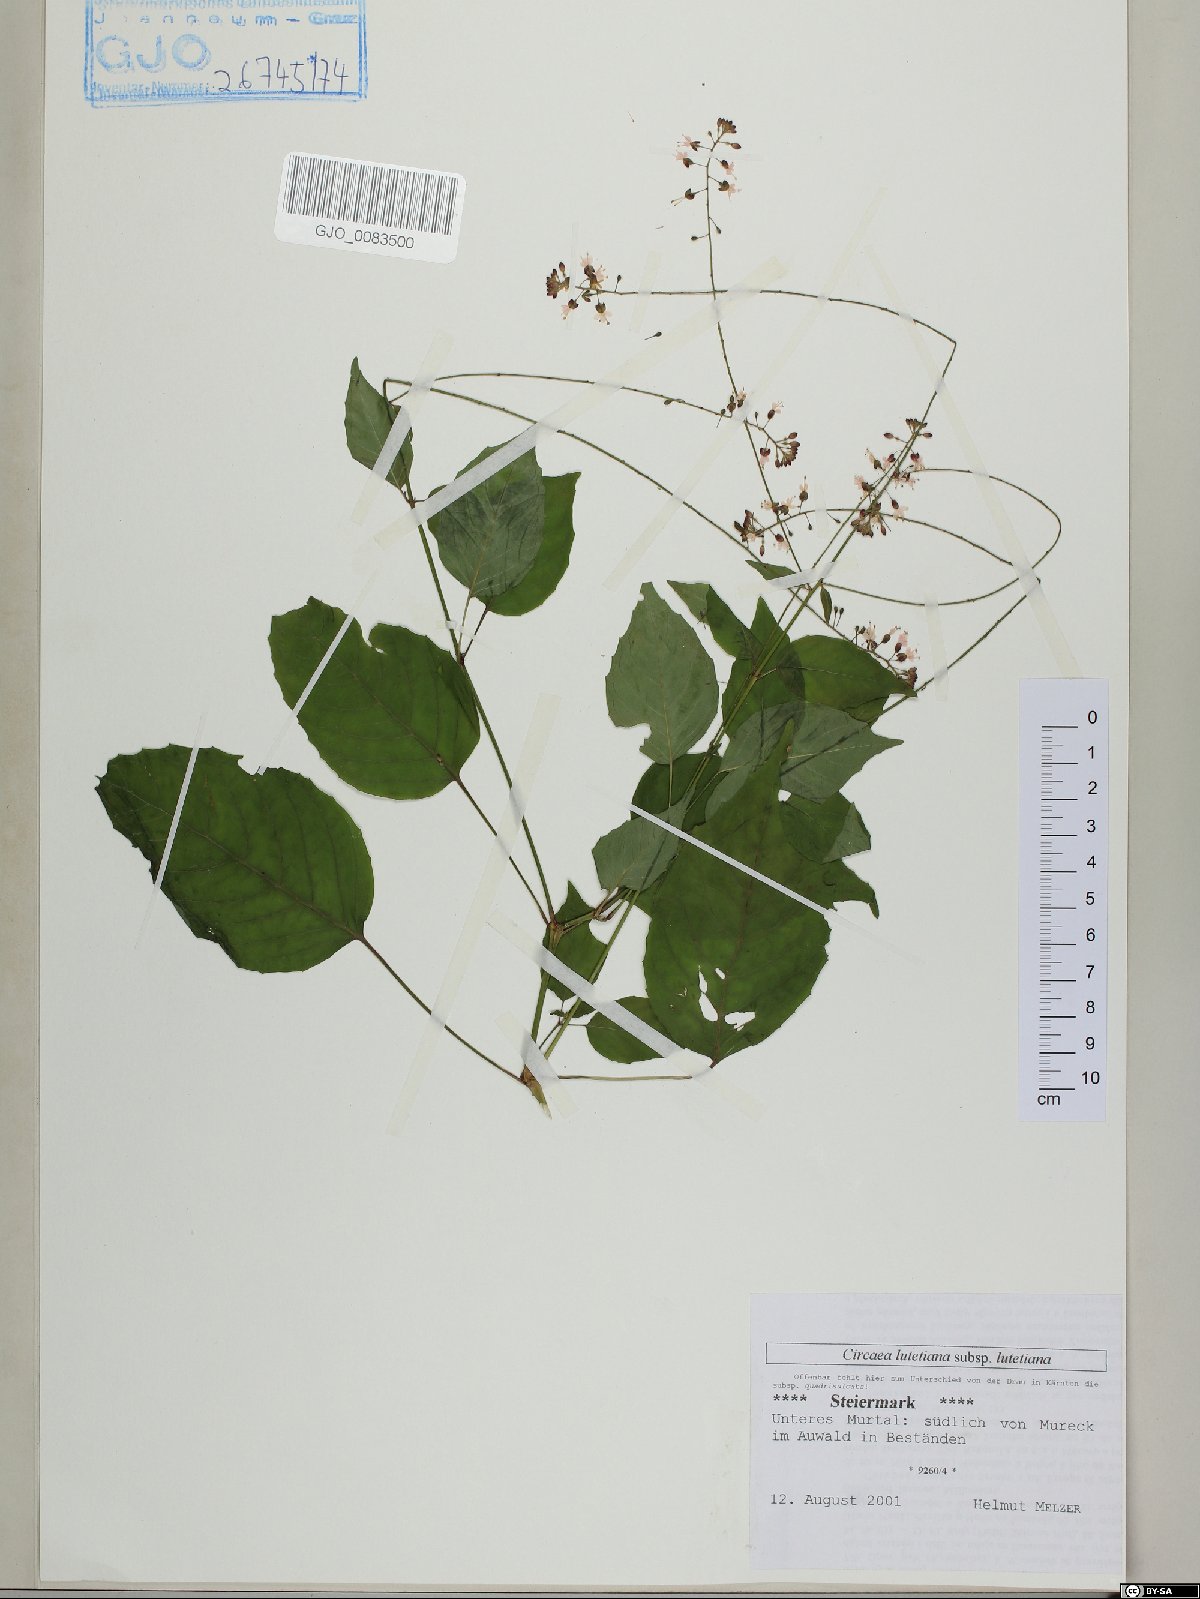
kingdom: Plantae
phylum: Tracheophyta
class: Magnoliopsida
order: Myrtales
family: Onagraceae
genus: Circaea
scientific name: Circaea lutetiana
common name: Enchanter's-nightshade
